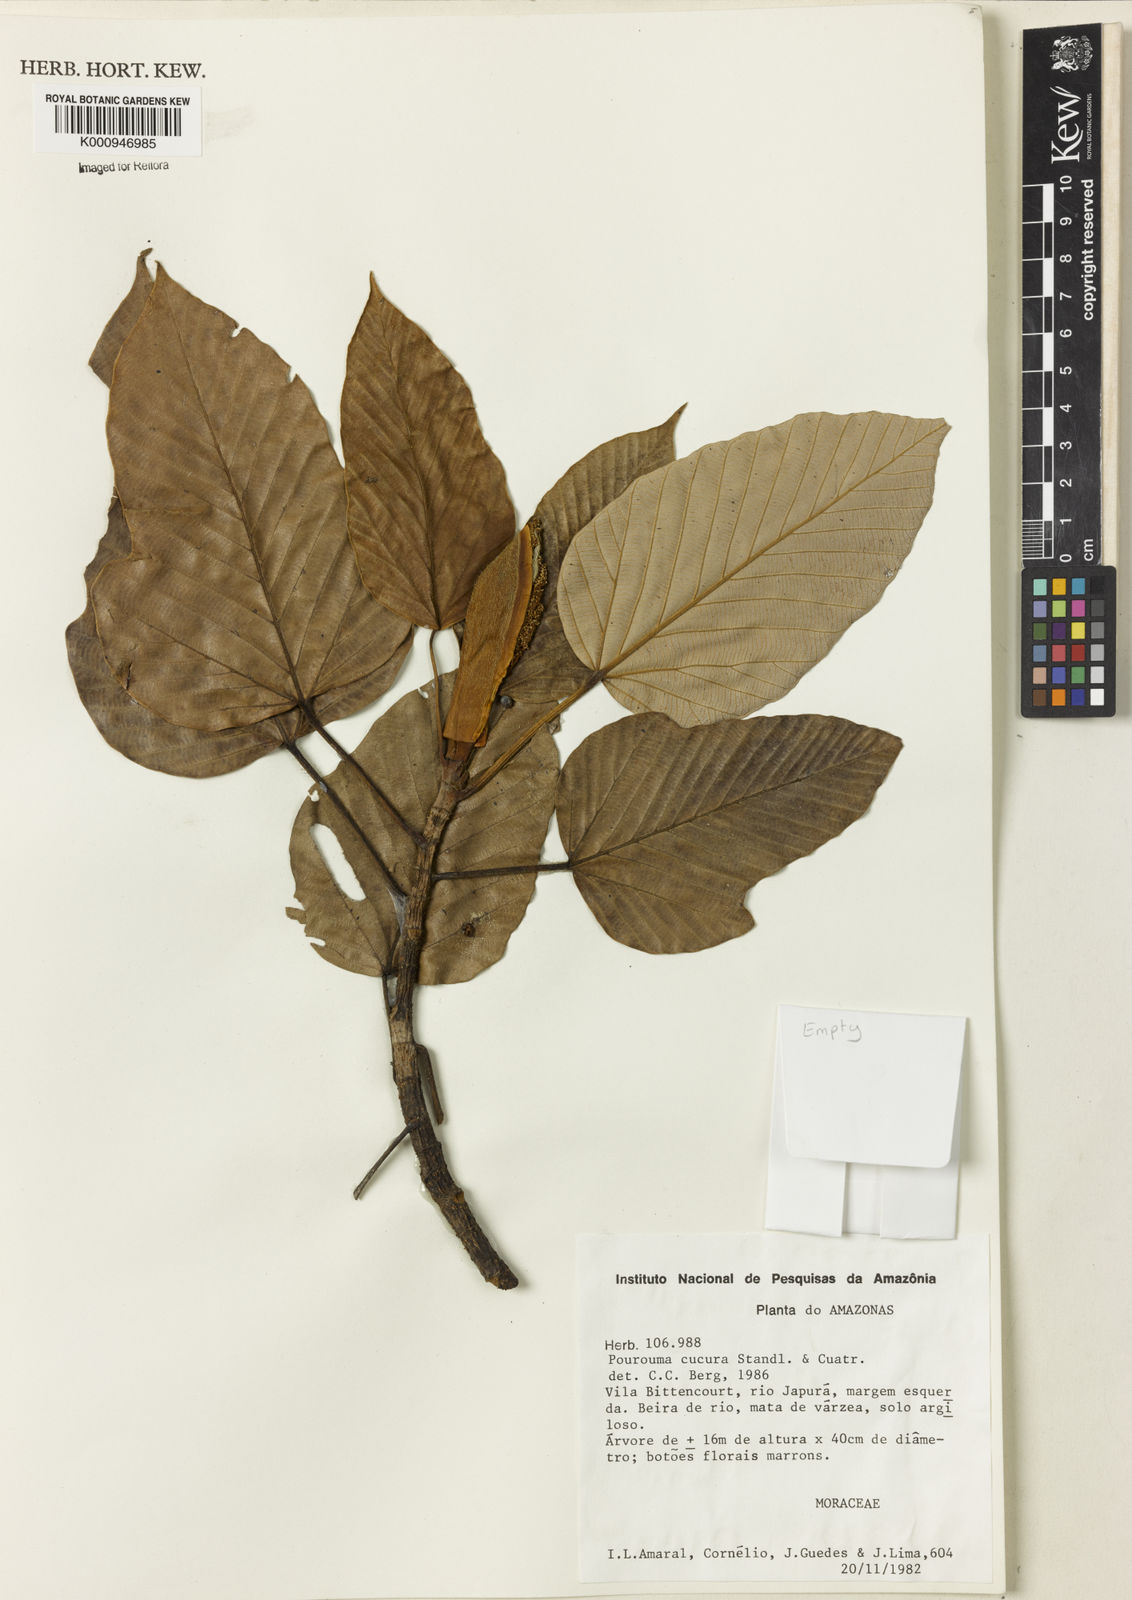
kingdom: Plantae
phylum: Tracheophyta
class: Magnoliopsida
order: Rosales
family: Urticaceae
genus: Pourouma
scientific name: Pourouma cucura
